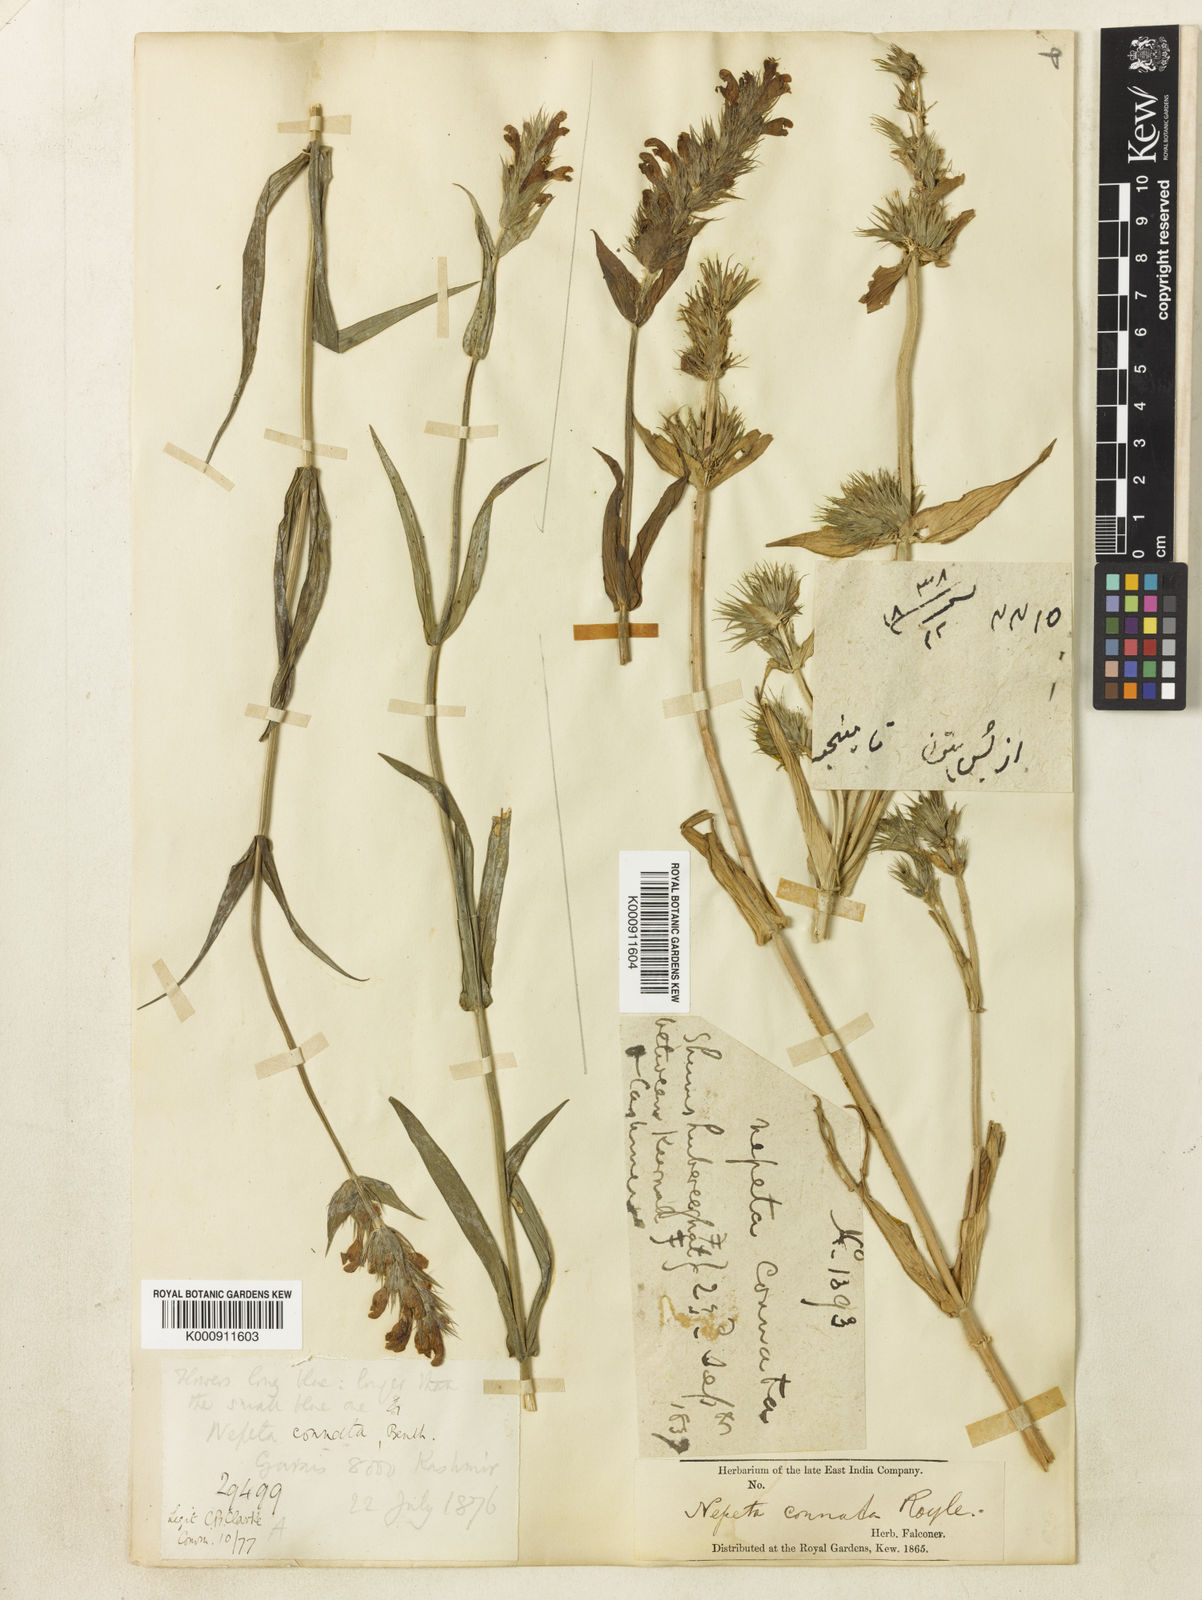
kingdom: Plantae
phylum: Tracheophyta
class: Magnoliopsida
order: Lamiales
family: Lamiaceae
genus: Nepeta
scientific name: Nepeta connata
